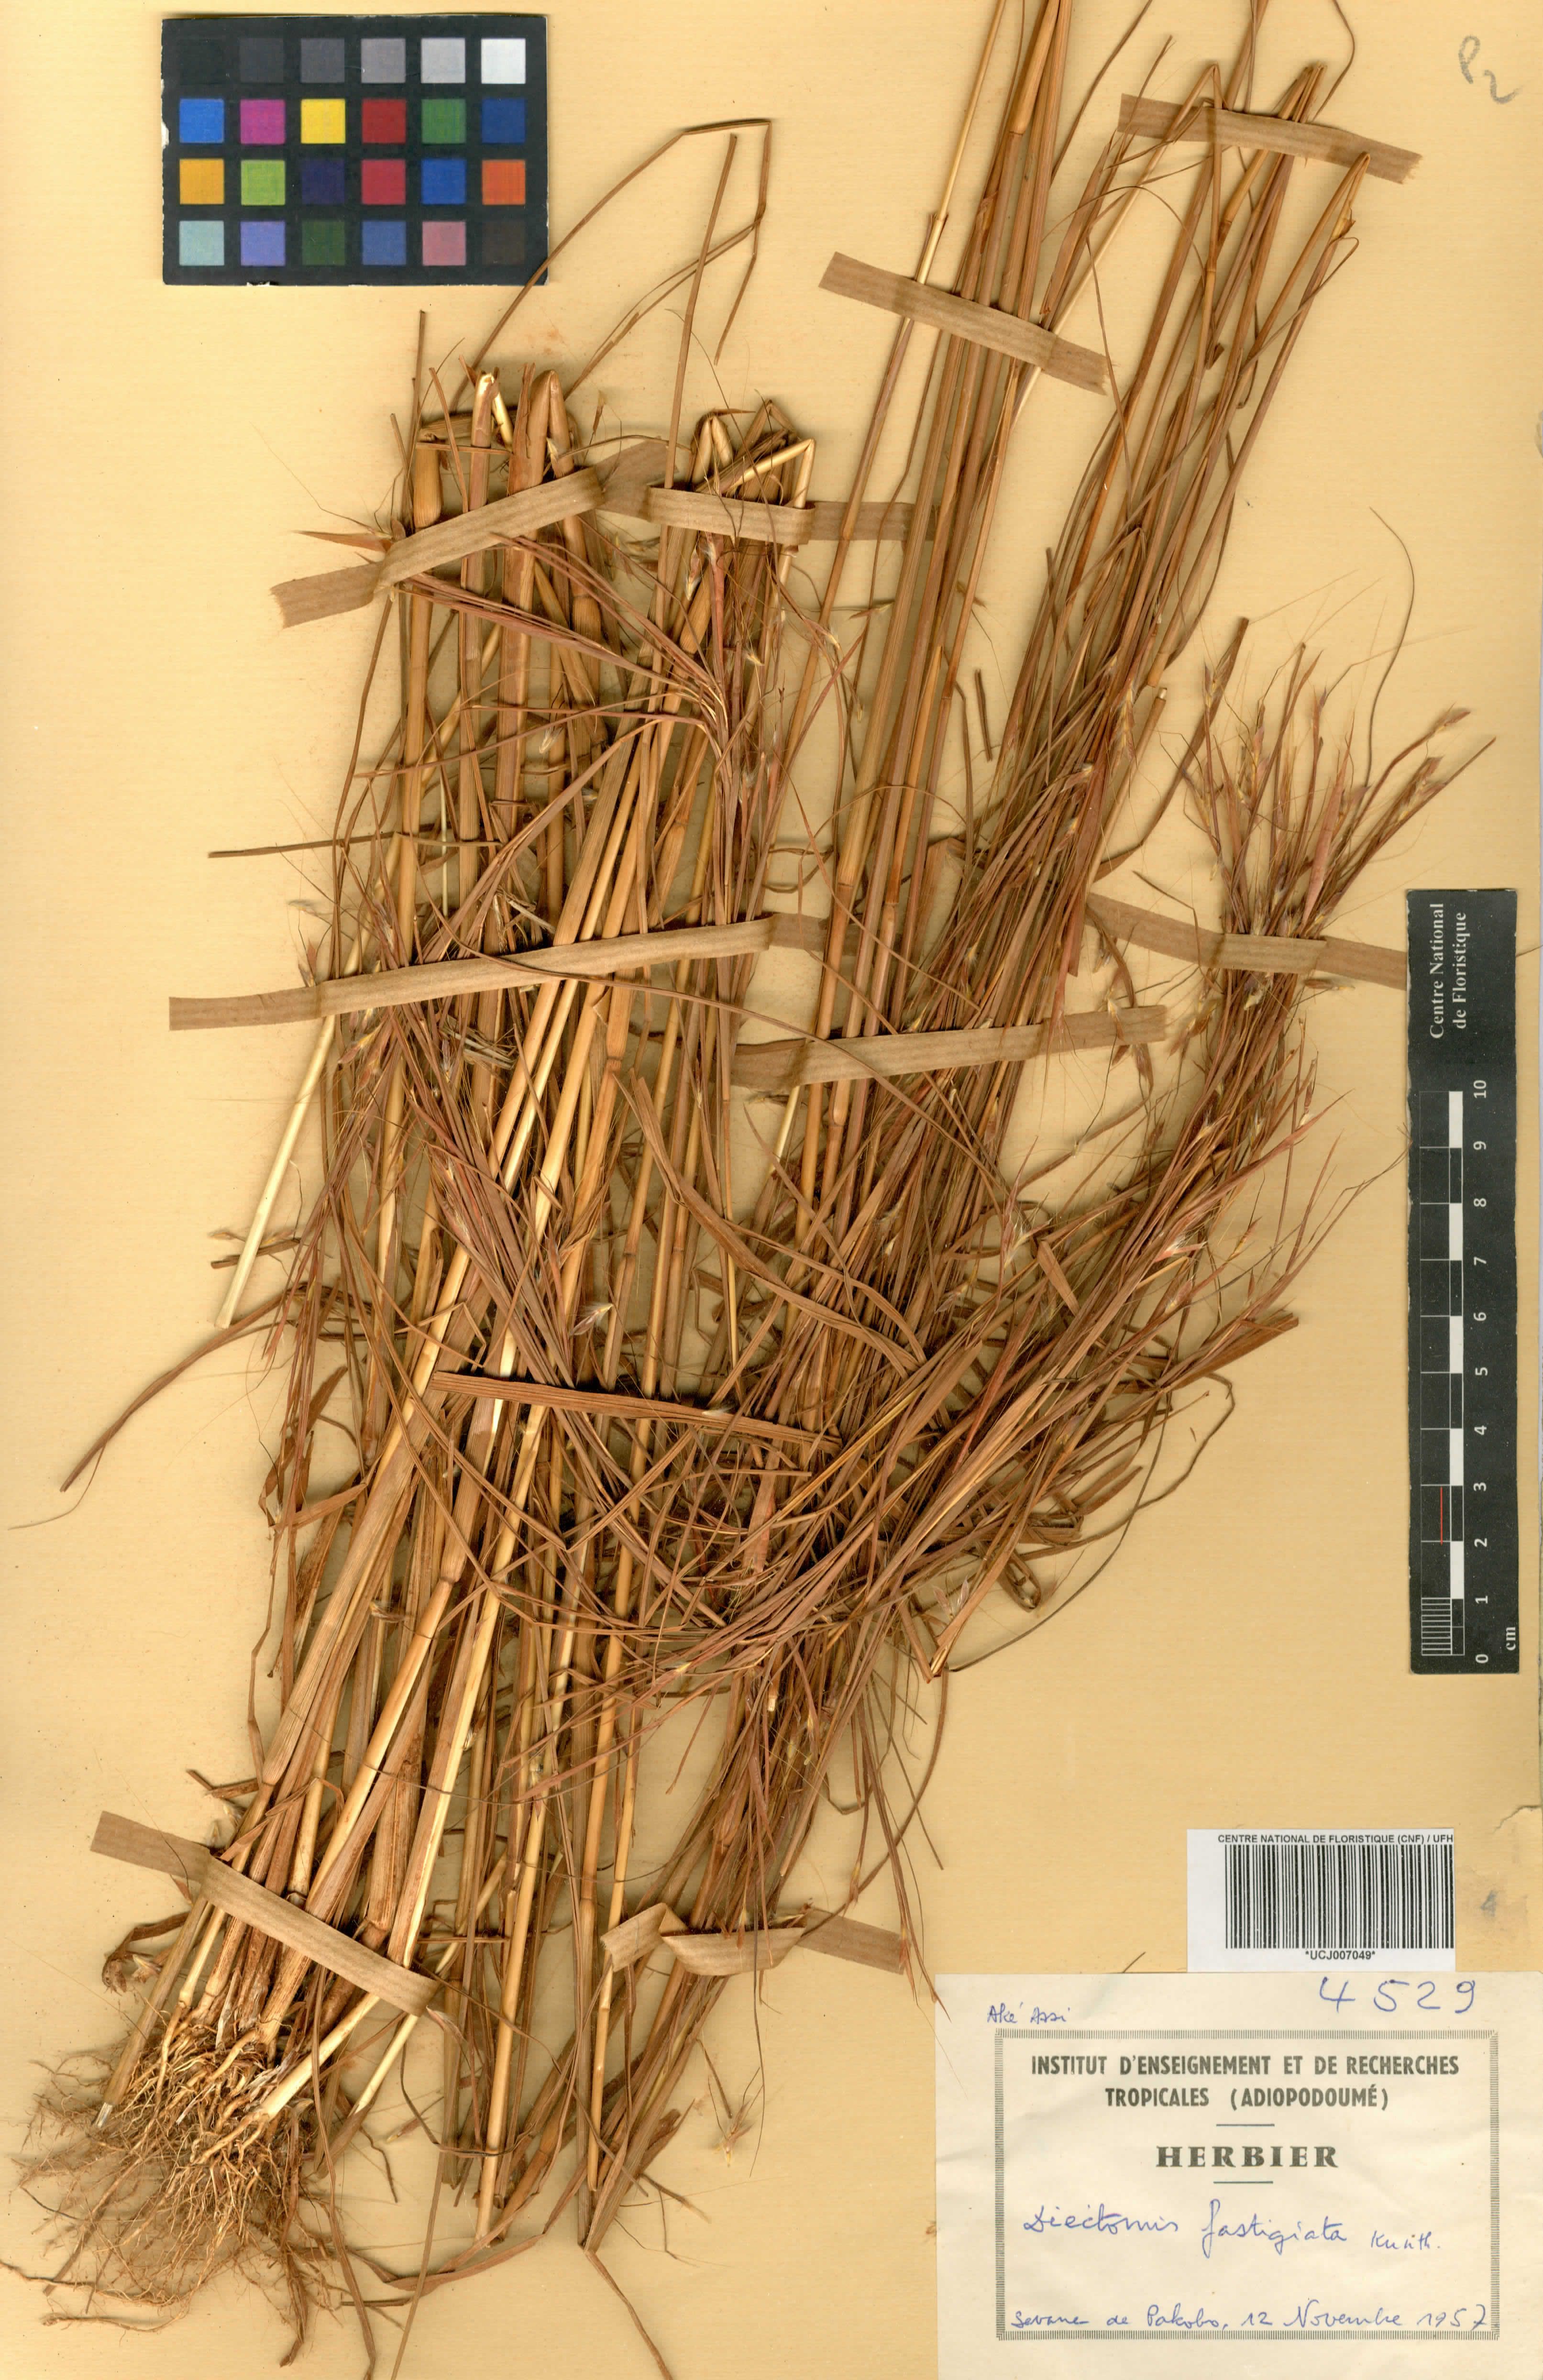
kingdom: Plantae
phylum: Tracheophyta
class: Liliopsida
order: Poales
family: Poaceae
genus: Diectomis
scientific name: Diectomis fastigiata
